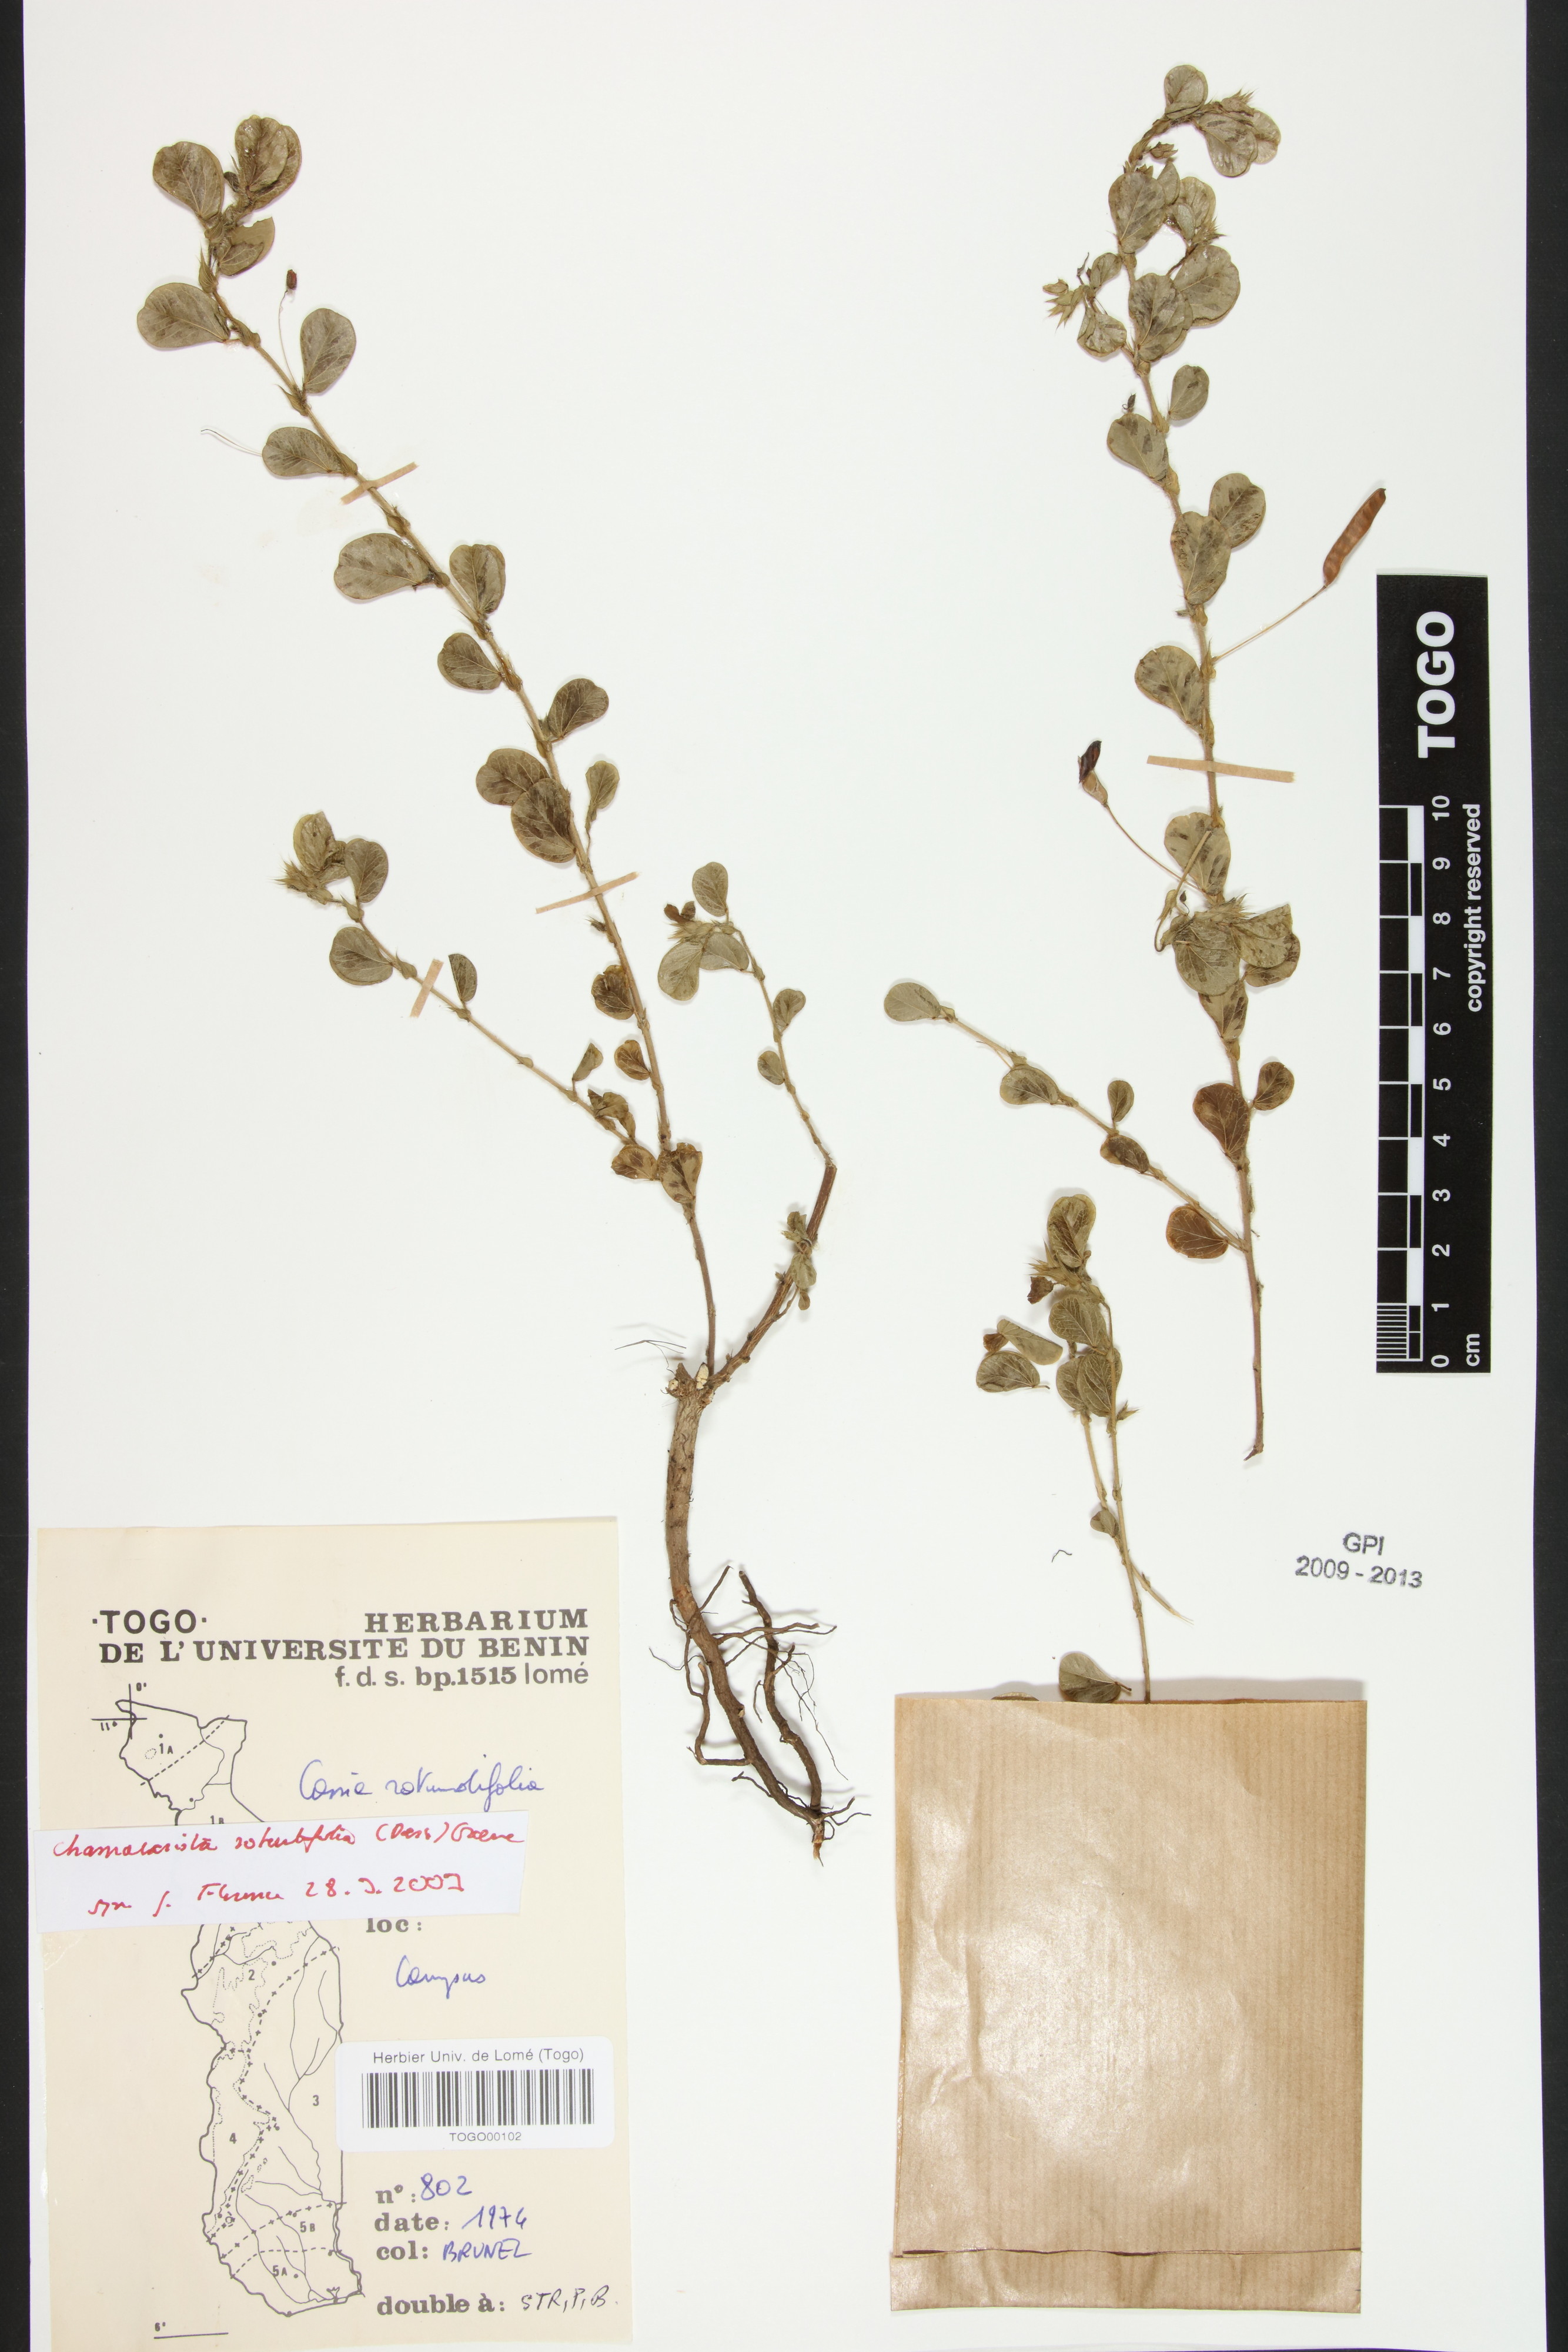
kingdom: Plantae
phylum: Tracheophyta
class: Magnoliopsida
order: Fabales
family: Fabaceae
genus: Chamaecrista
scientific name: Chamaecrista rotundifolia
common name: Round-leaf cassia
